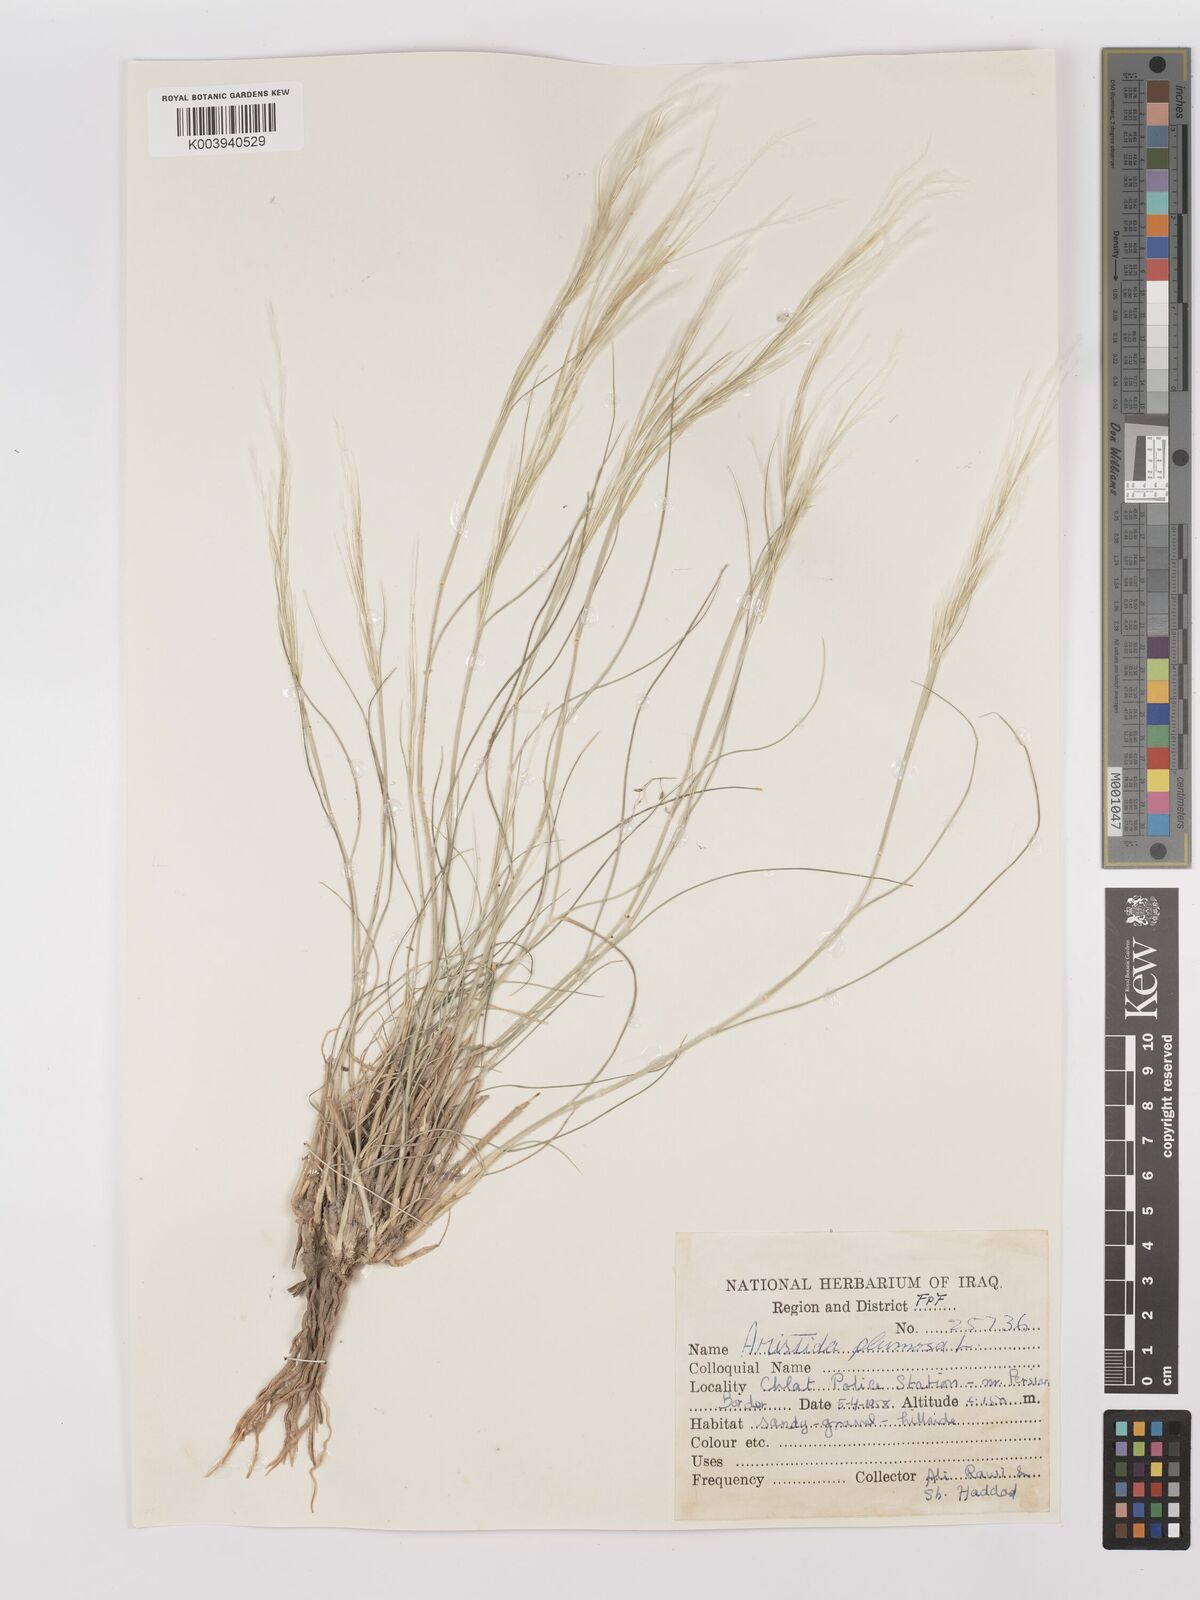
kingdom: Plantae
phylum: Tracheophyta
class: Liliopsida
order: Poales
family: Poaceae
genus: Stipagrostis
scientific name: Stipagrostis plumosa
